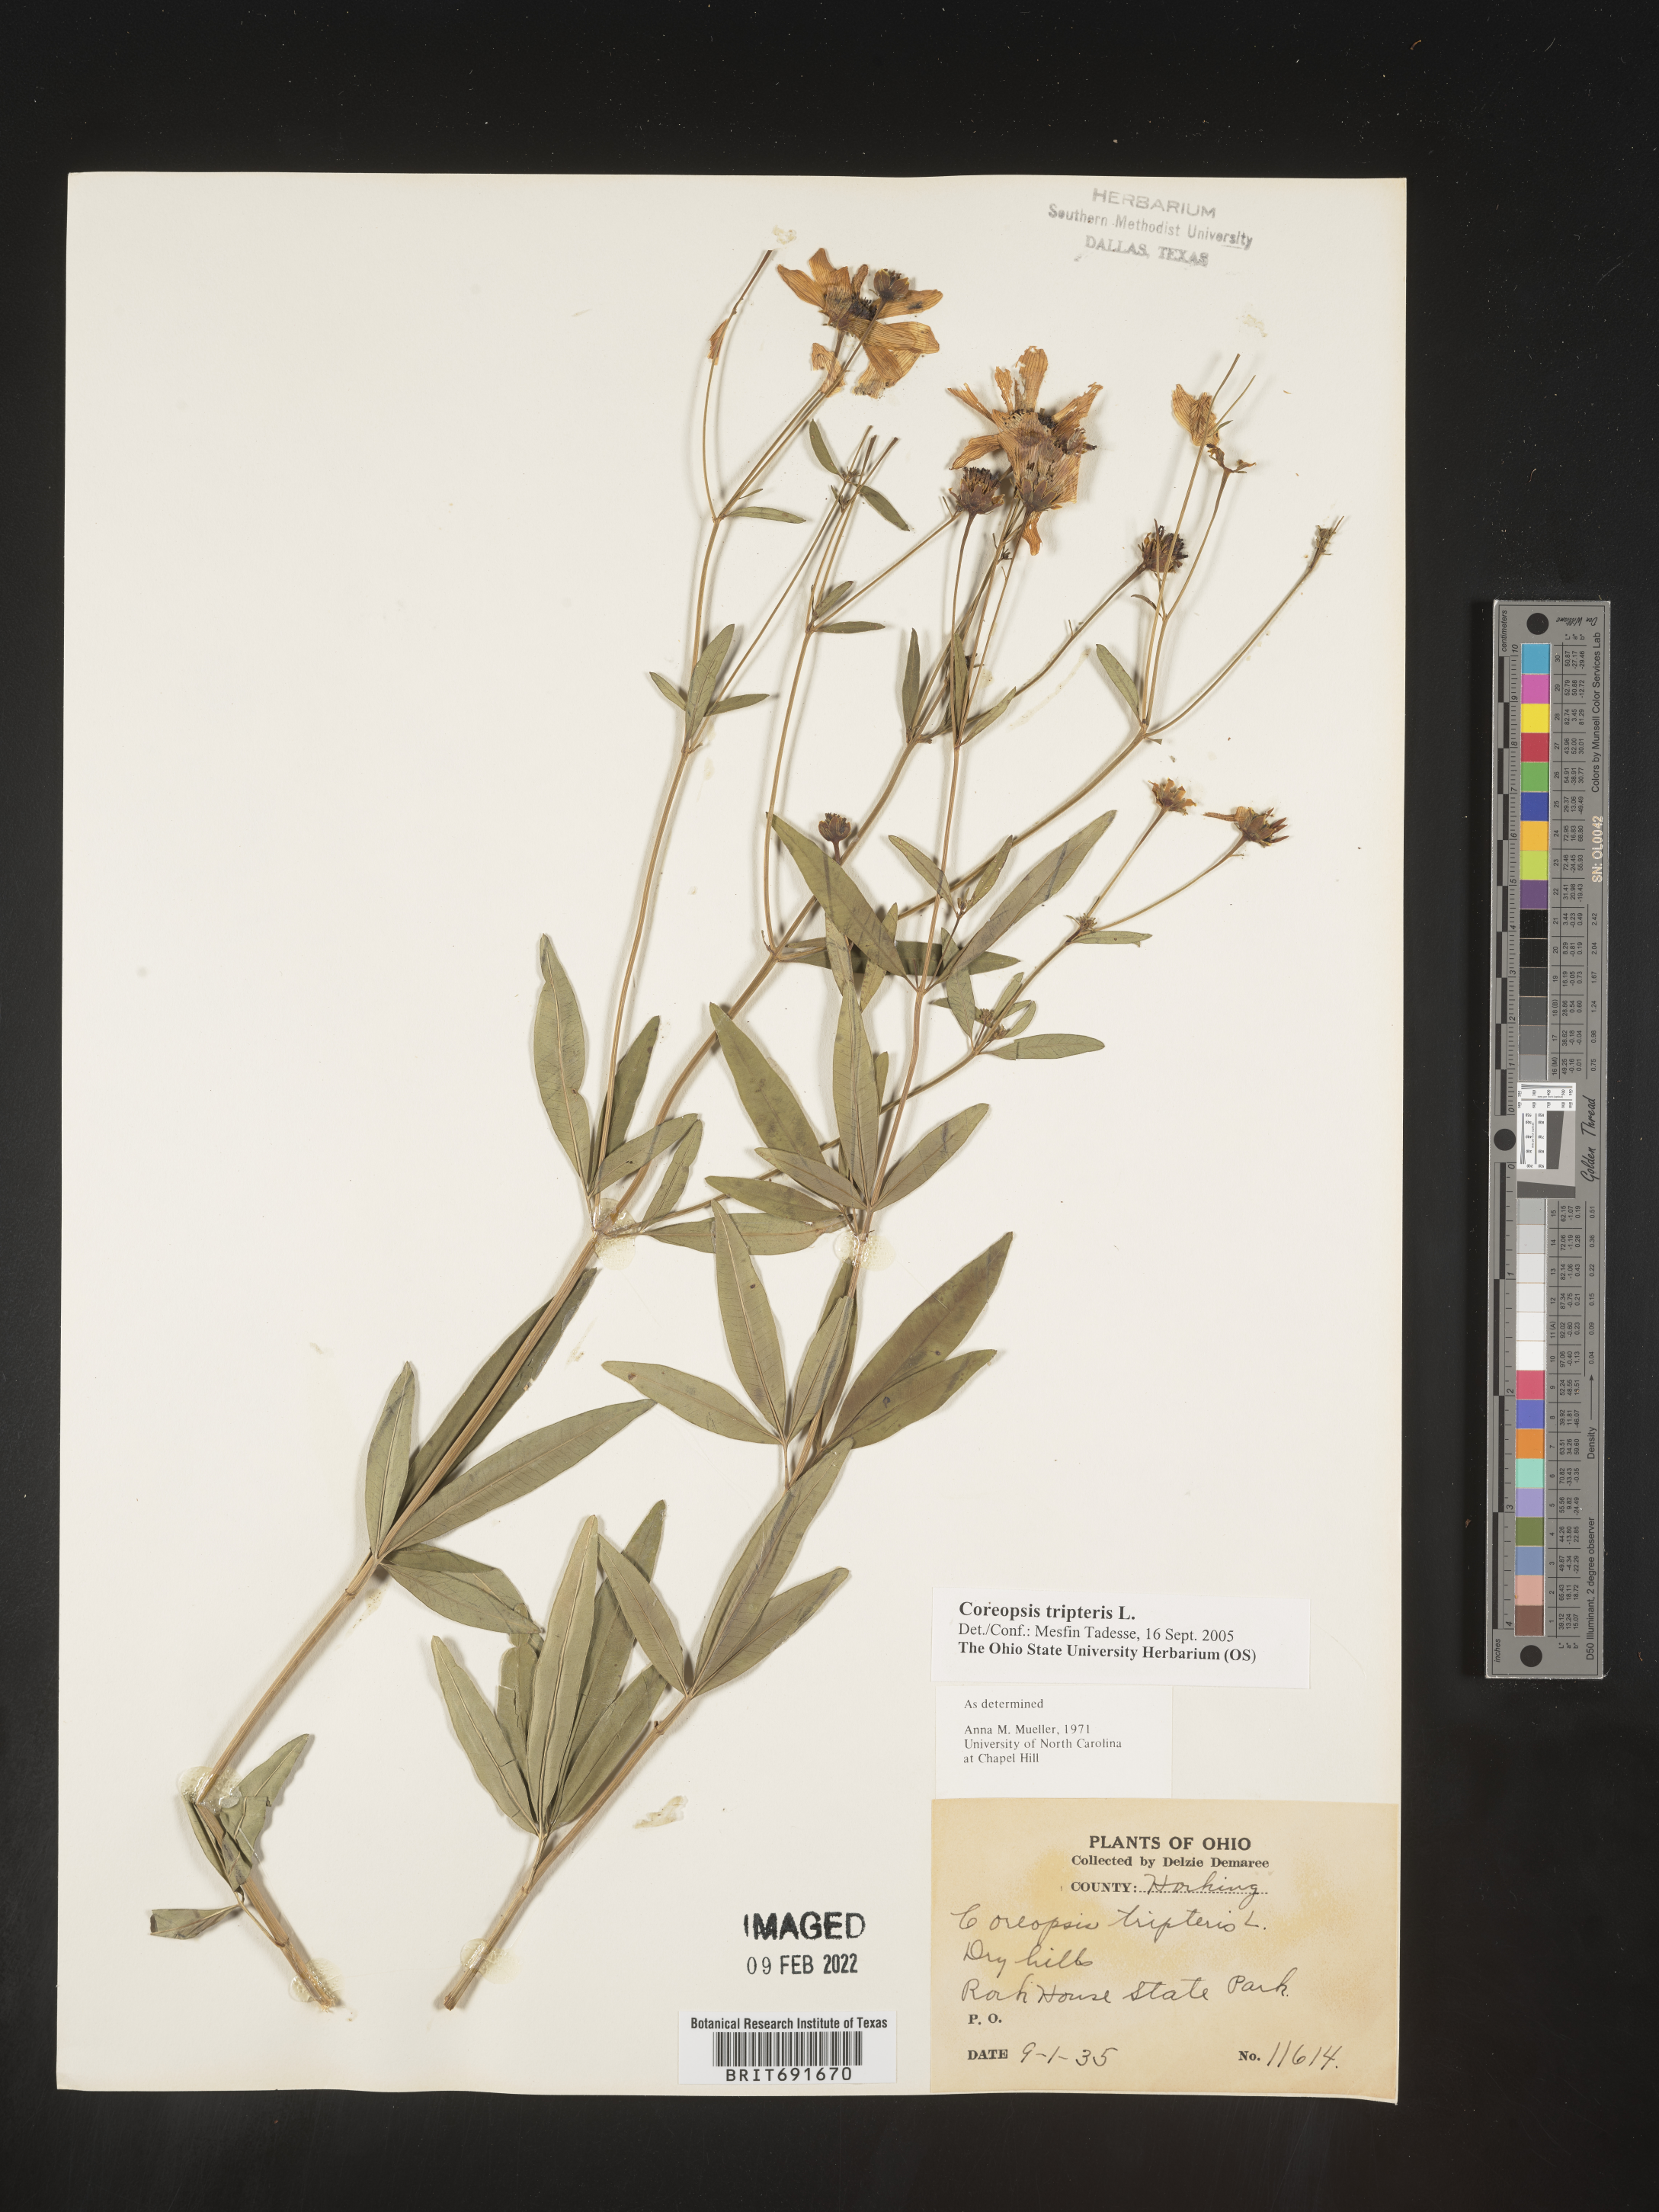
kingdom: Plantae
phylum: Tracheophyta
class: Magnoliopsida
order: Asterales
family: Asteraceae
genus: Coreopsis
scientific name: Coreopsis tripteris
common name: Tall coreopsis
